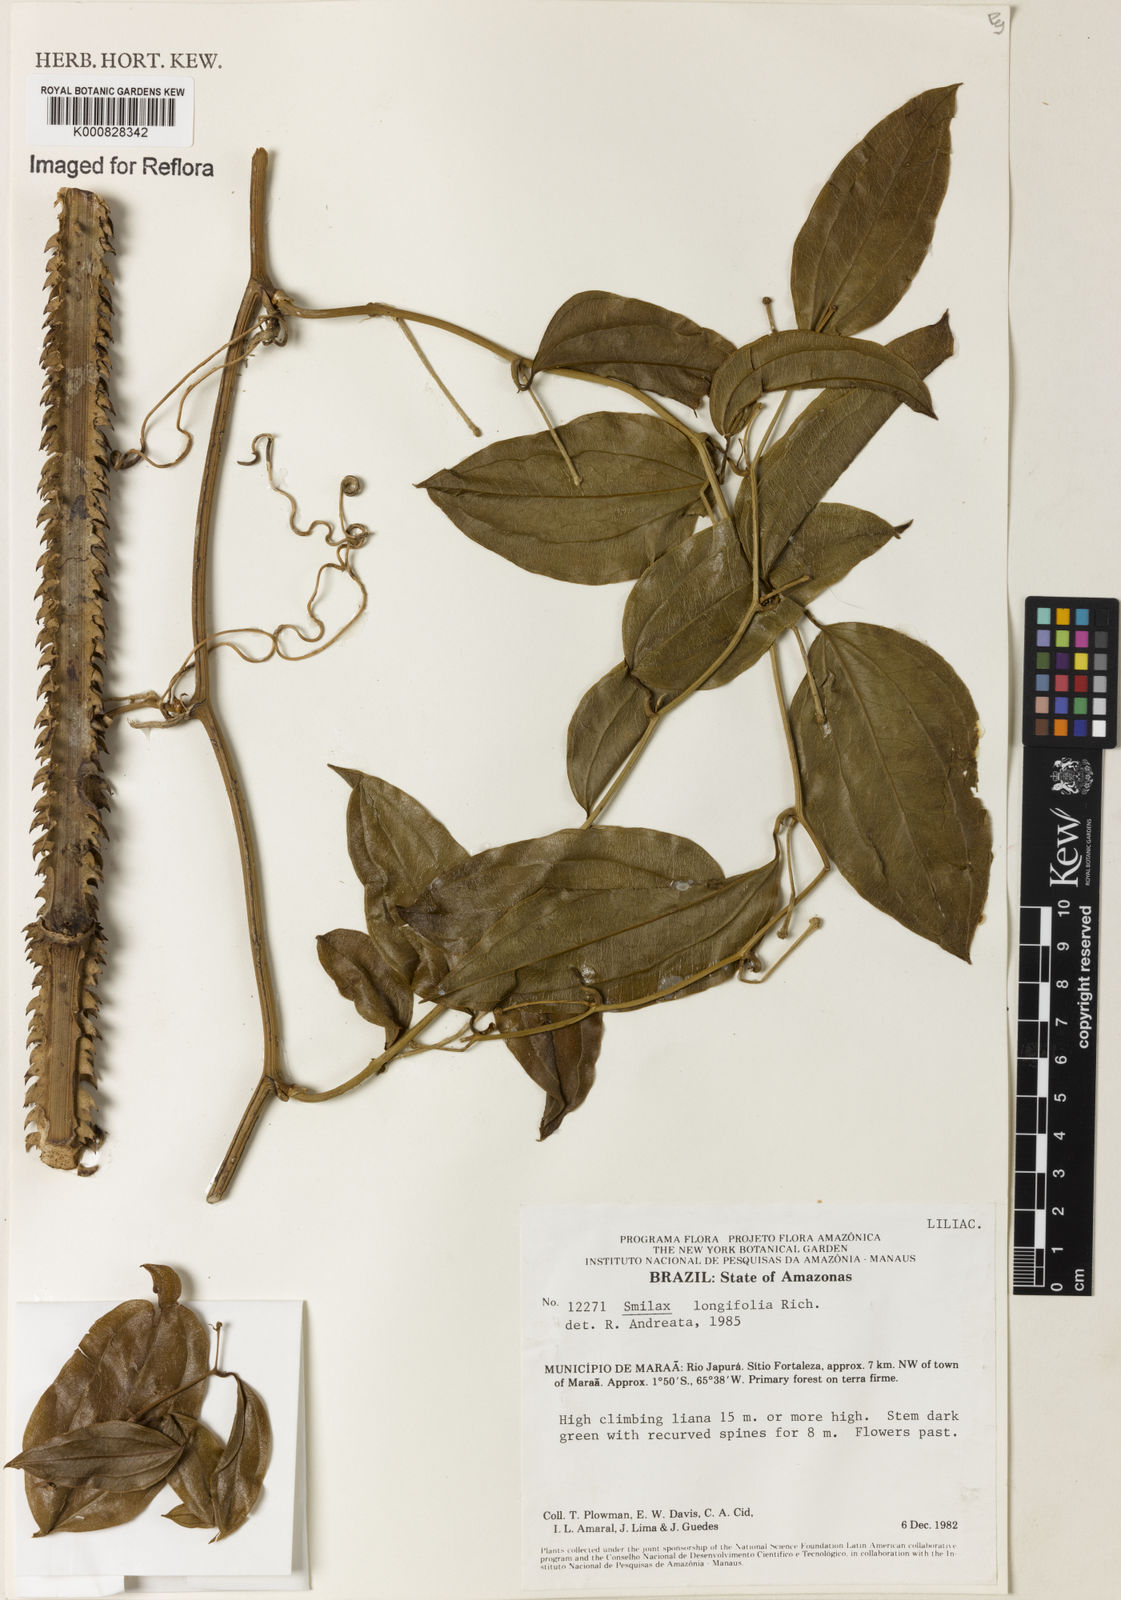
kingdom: Plantae
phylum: Tracheophyta
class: Liliopsida
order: Liliales
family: Smilacaceae
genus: Smilax
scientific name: Smilax longifolia
